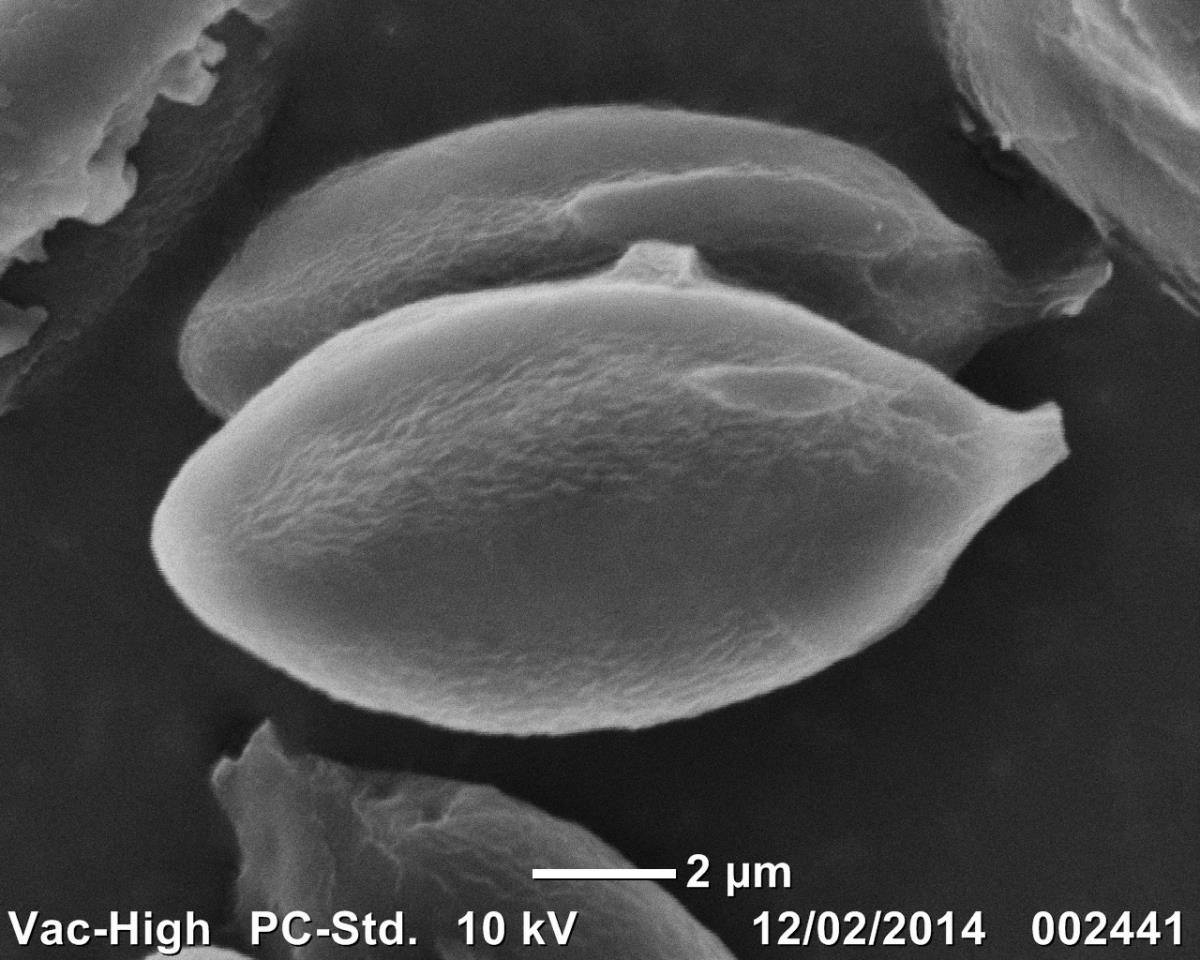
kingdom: Fungi
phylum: Basidiomycota
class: Agaricomycetes
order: Hysterangiales
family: Hysterangiaceae
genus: Hysterangium
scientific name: Hysterangium
